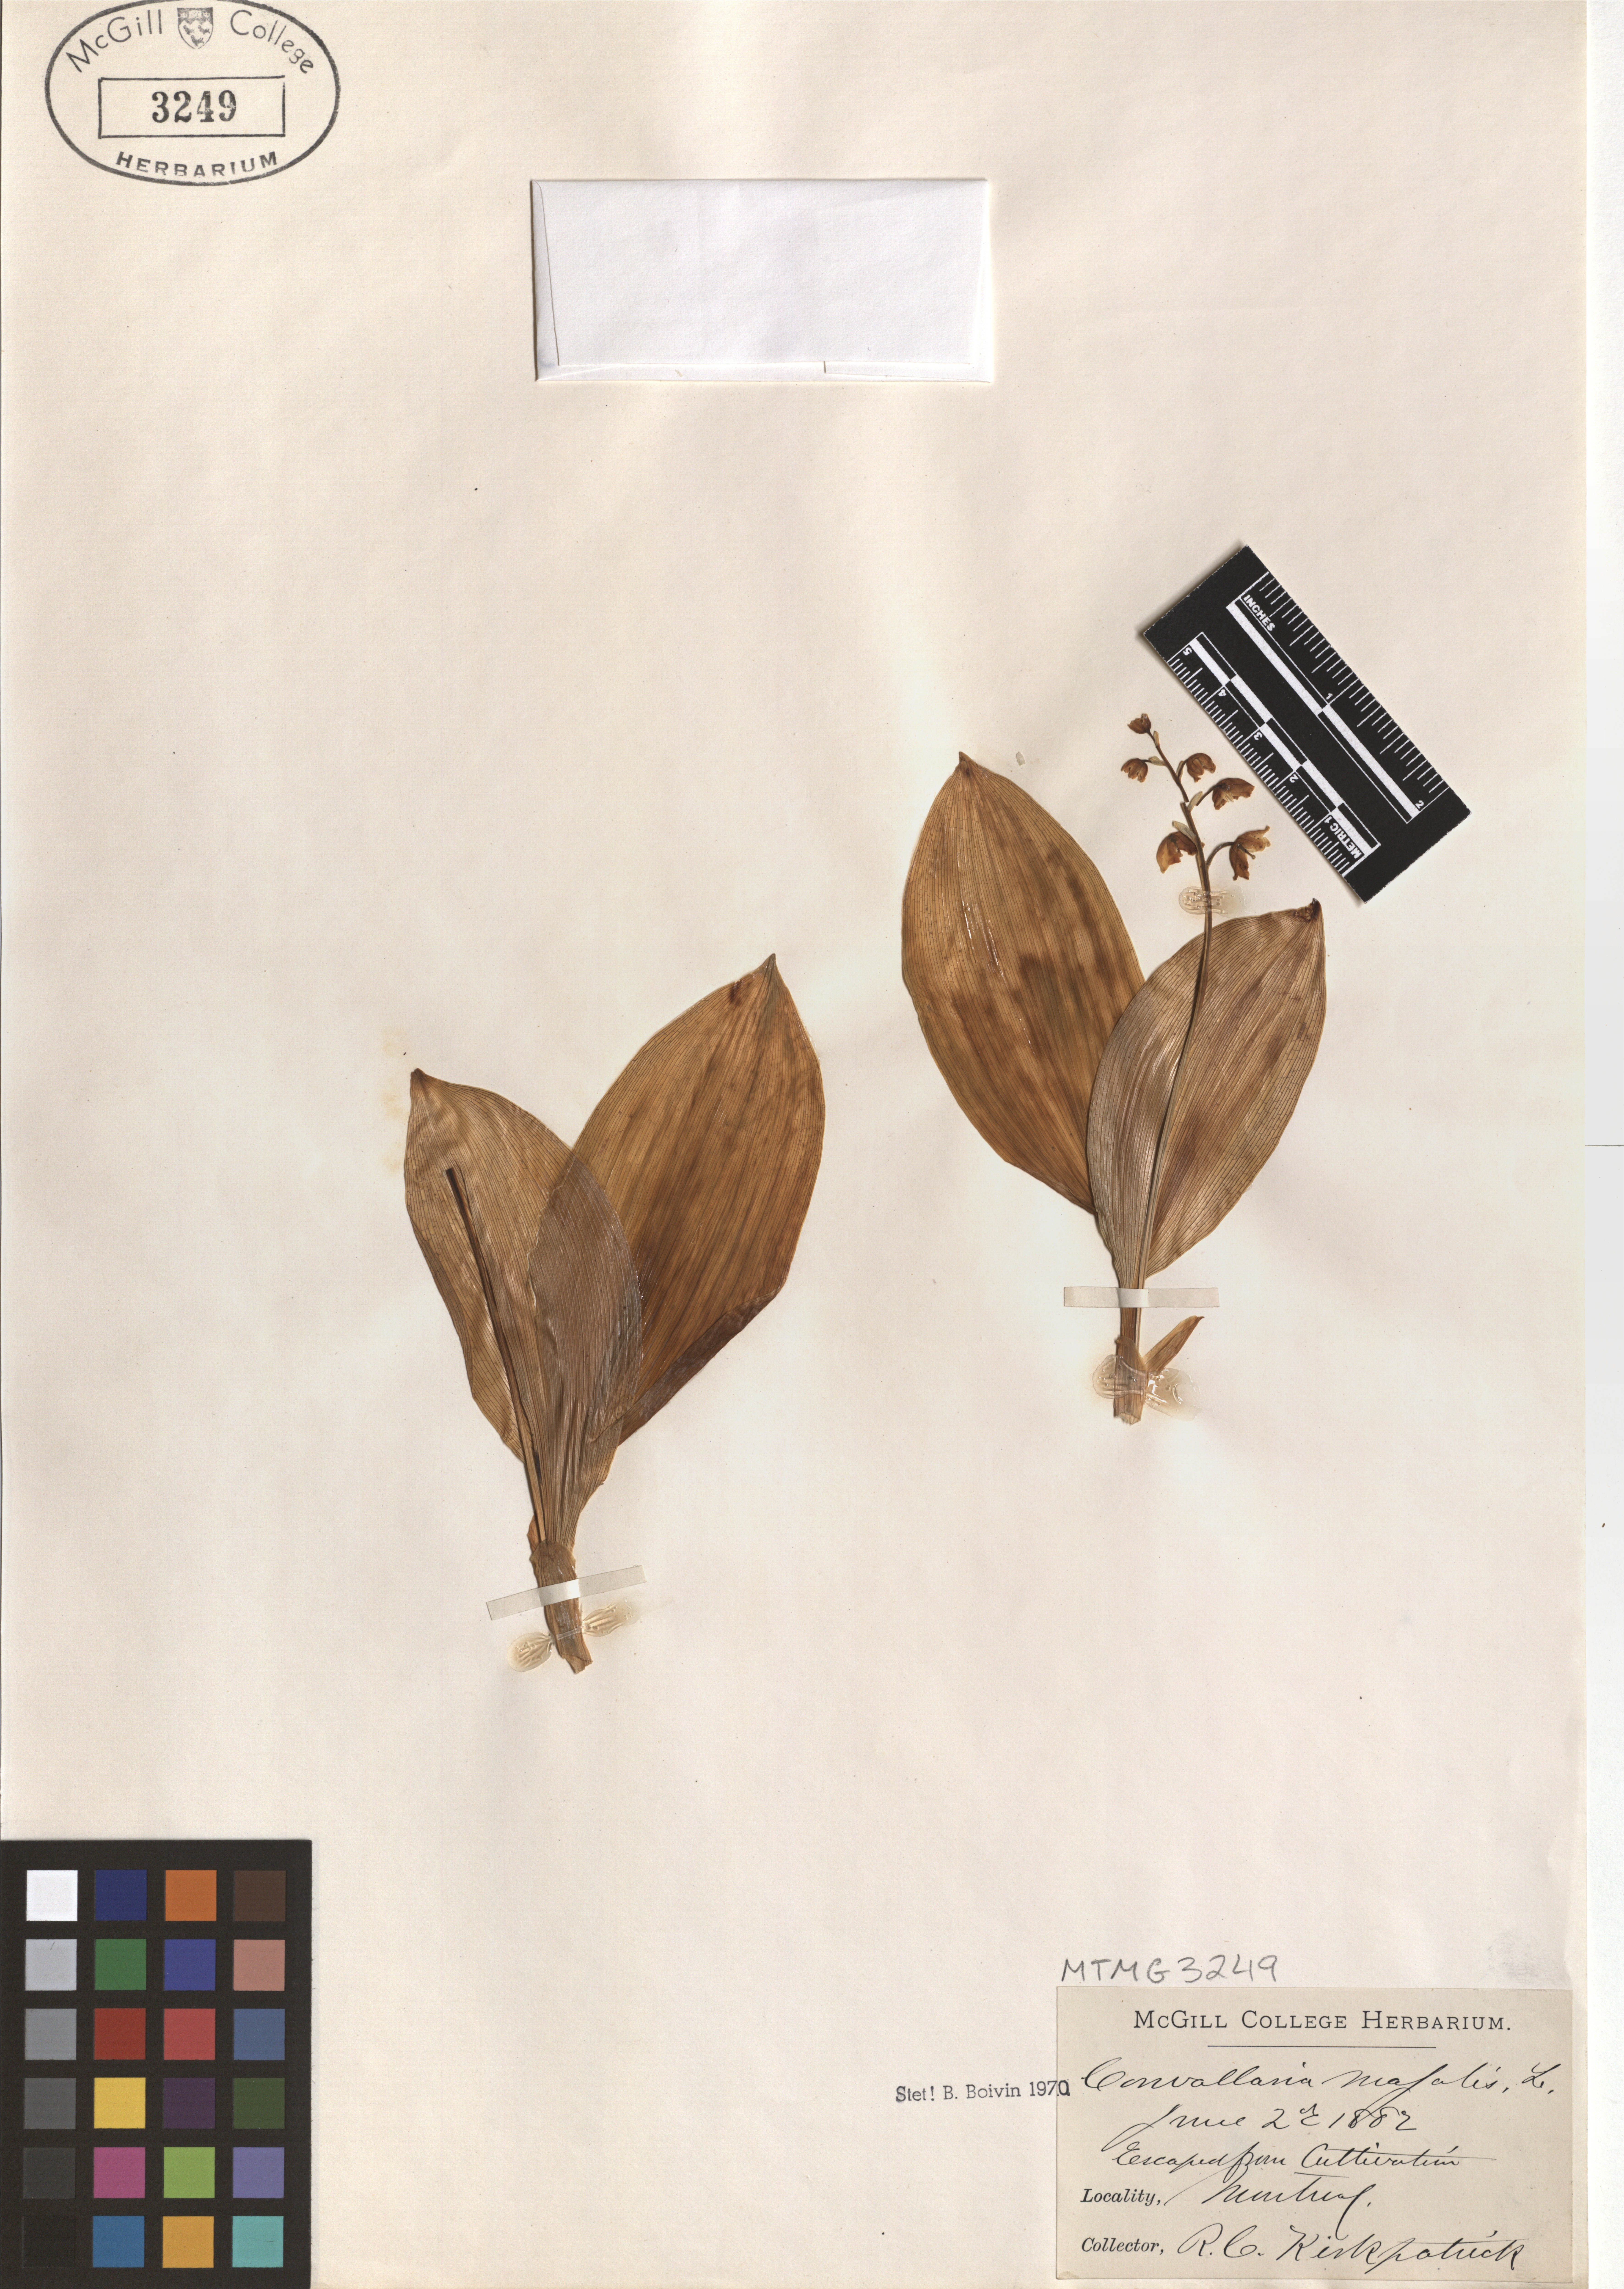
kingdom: Plantae
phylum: Tracheophyta
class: Liliopsida
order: Asparagales
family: Asparagaceae
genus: Convallaria
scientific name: Convallaria majalis
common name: Lily-of-the-valley
